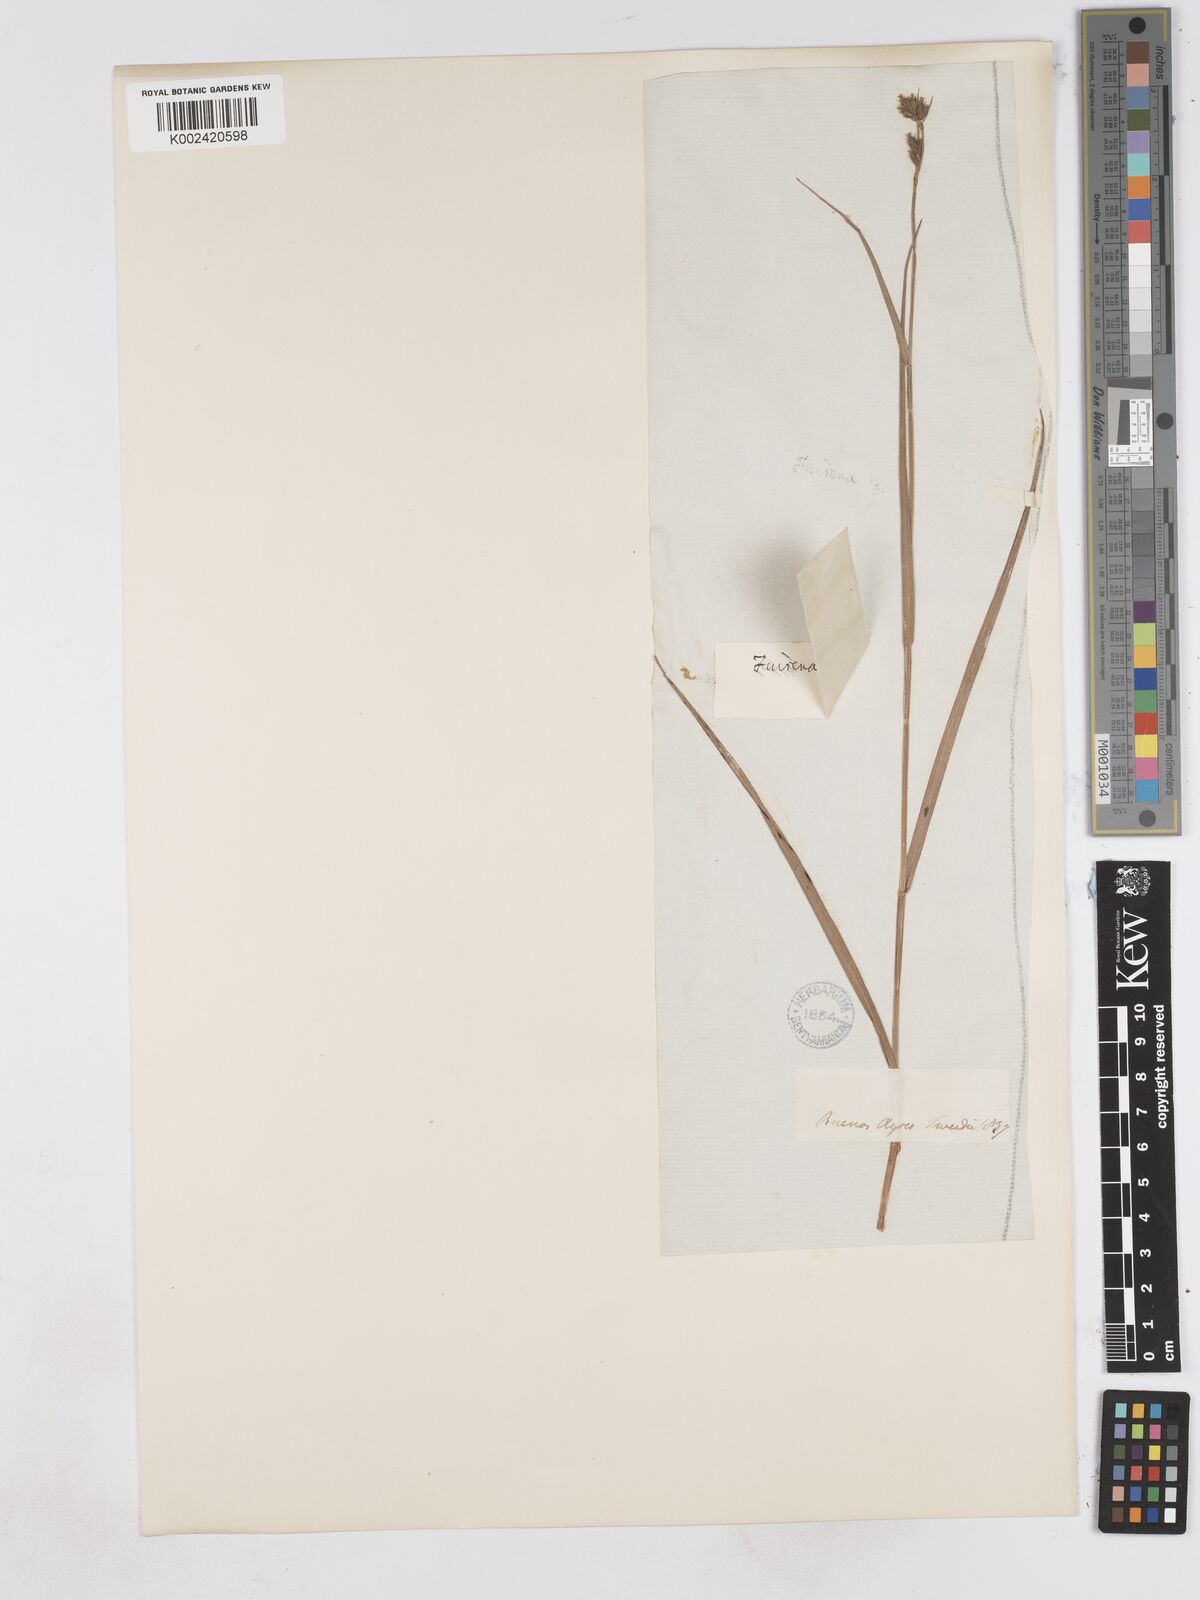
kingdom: Plantae
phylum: Tracheophyta
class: Liliopsida
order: Poales
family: Cyperaceae
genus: Fuirena
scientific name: Fuirena incompleta
